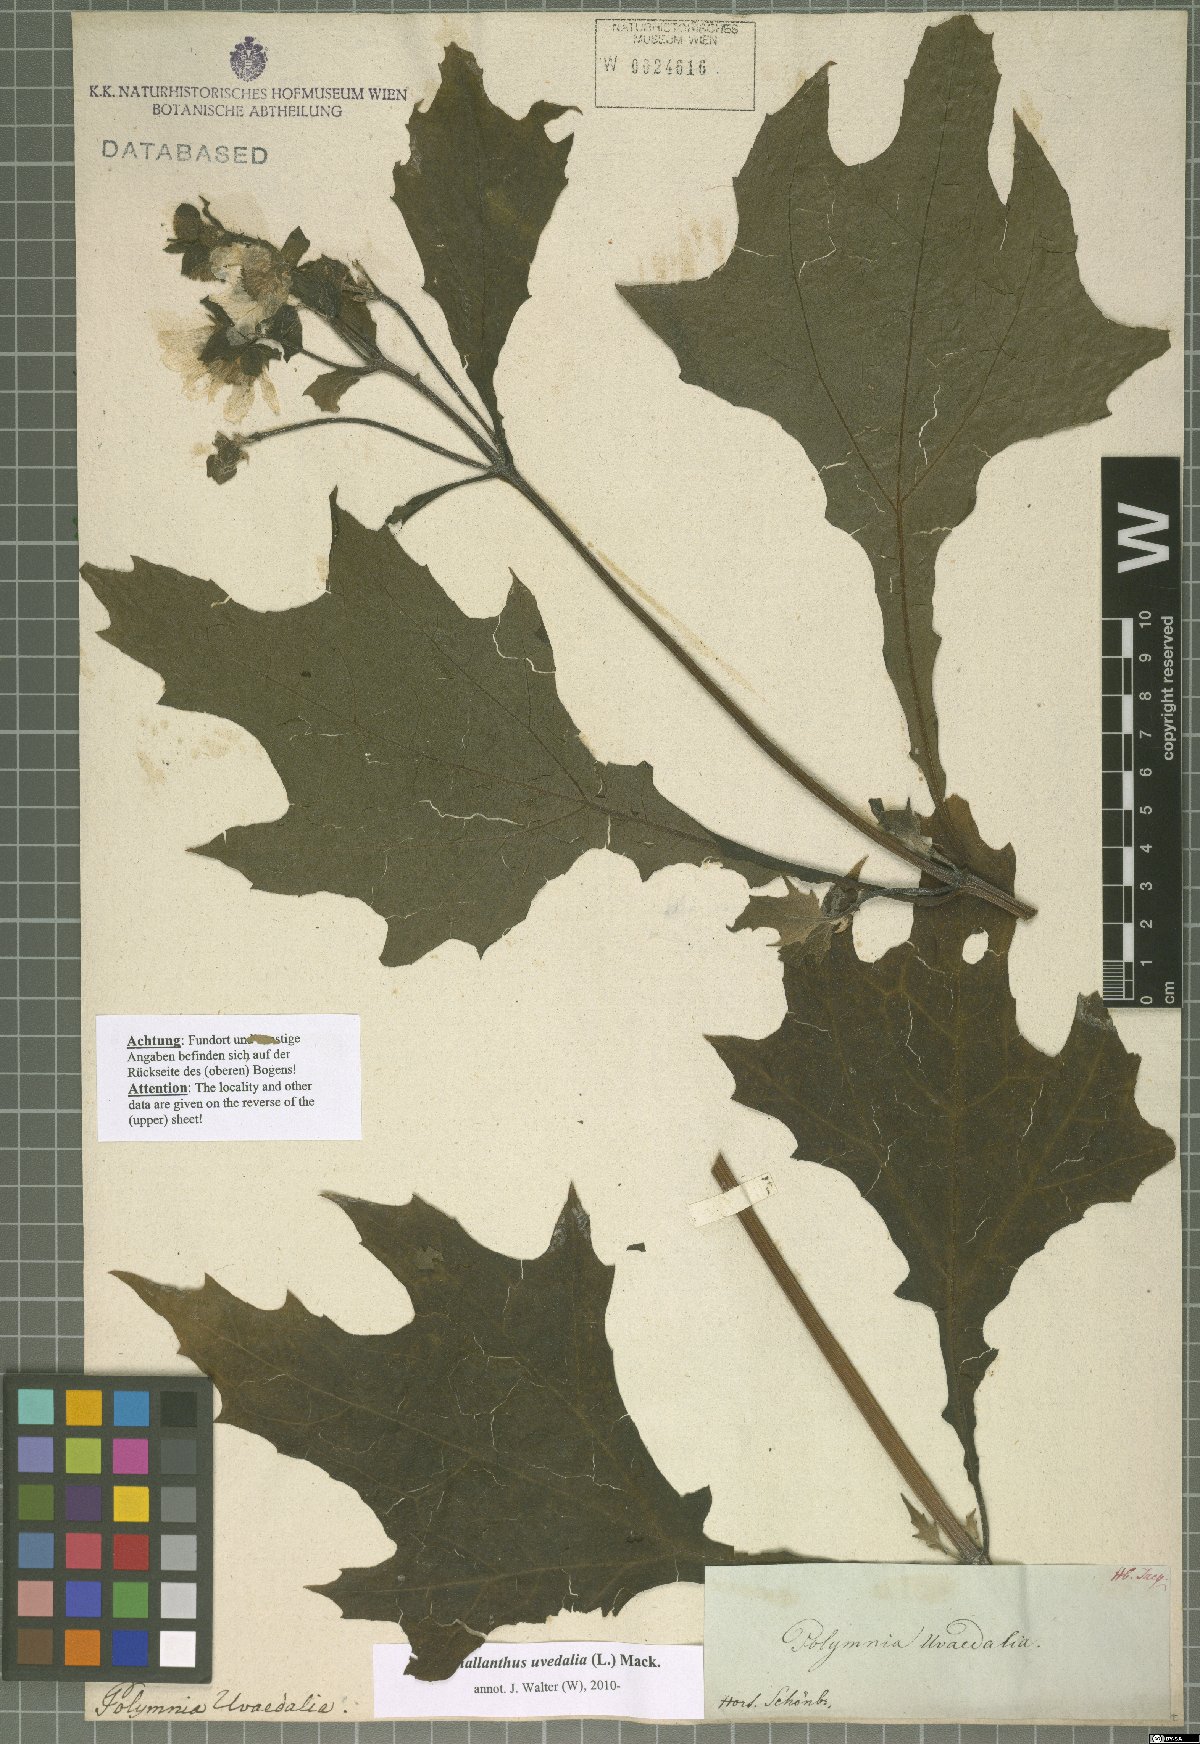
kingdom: Plantae
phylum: Tracheophyta
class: Magnoliopsida
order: Asterales
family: Asteraceae
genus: Smallanthus
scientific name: Smallanthus uvedalia
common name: Bear's-foot
